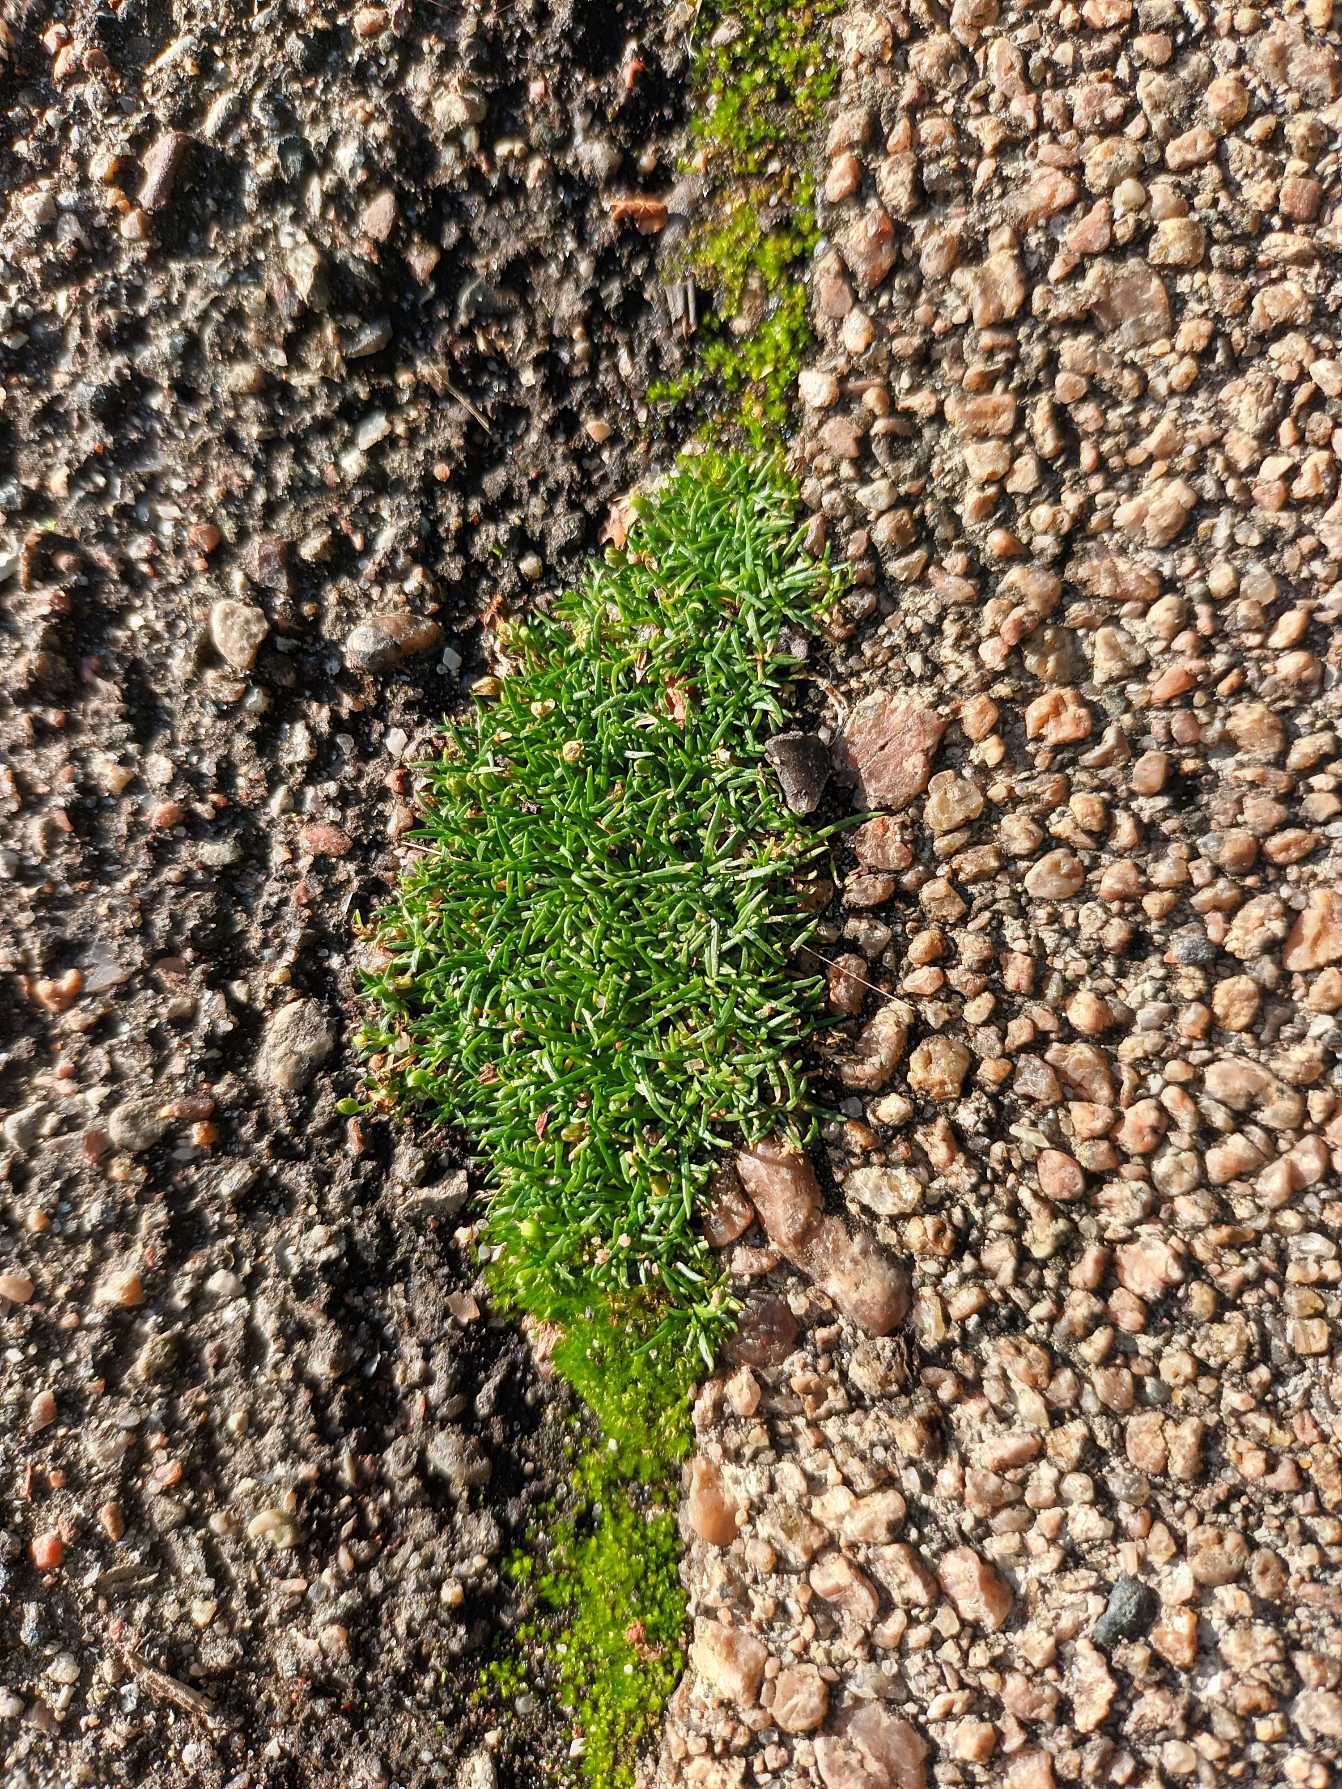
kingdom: Plantae
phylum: Tracheophyta
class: Magnoliopsida
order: Caryophyllales
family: Caryophyllaceae
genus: Sagina
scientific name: Sagina procumbens
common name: Almindelig firling
